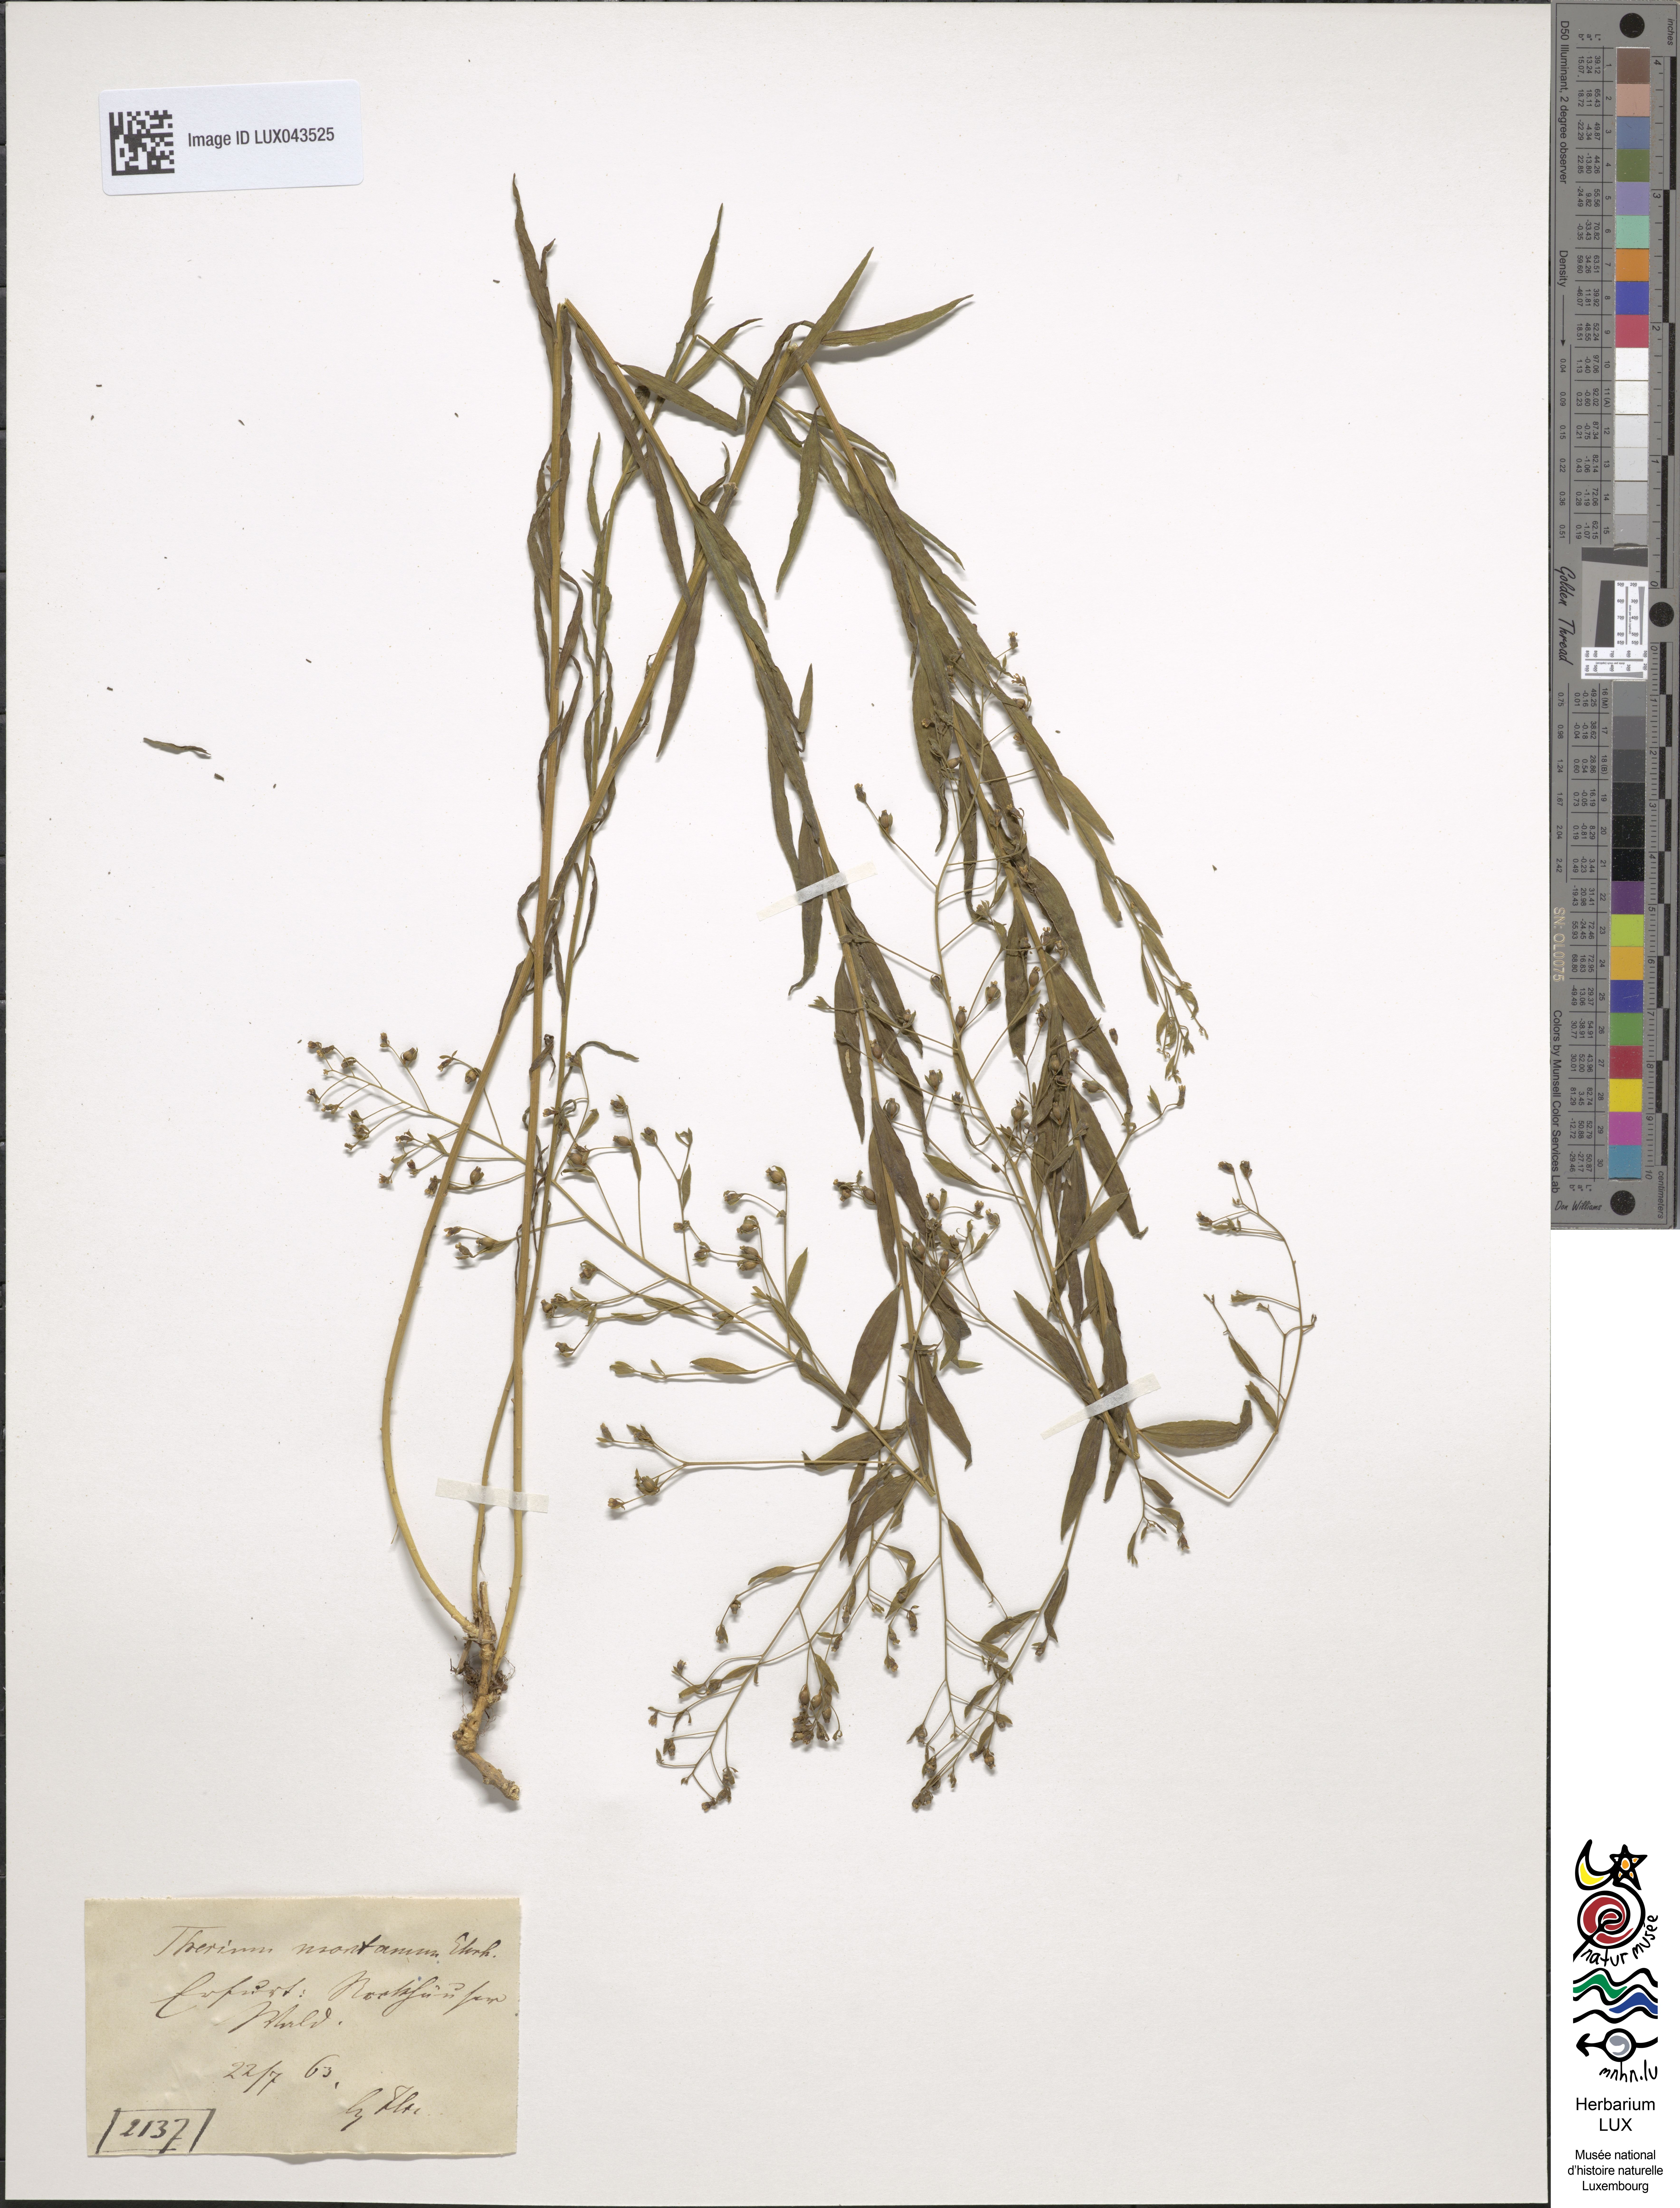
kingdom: Plantae
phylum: Tracheophyta
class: Magnoliopsida
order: Santalales
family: Thesiaceae
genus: Thesium
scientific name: Thesium bavarum
